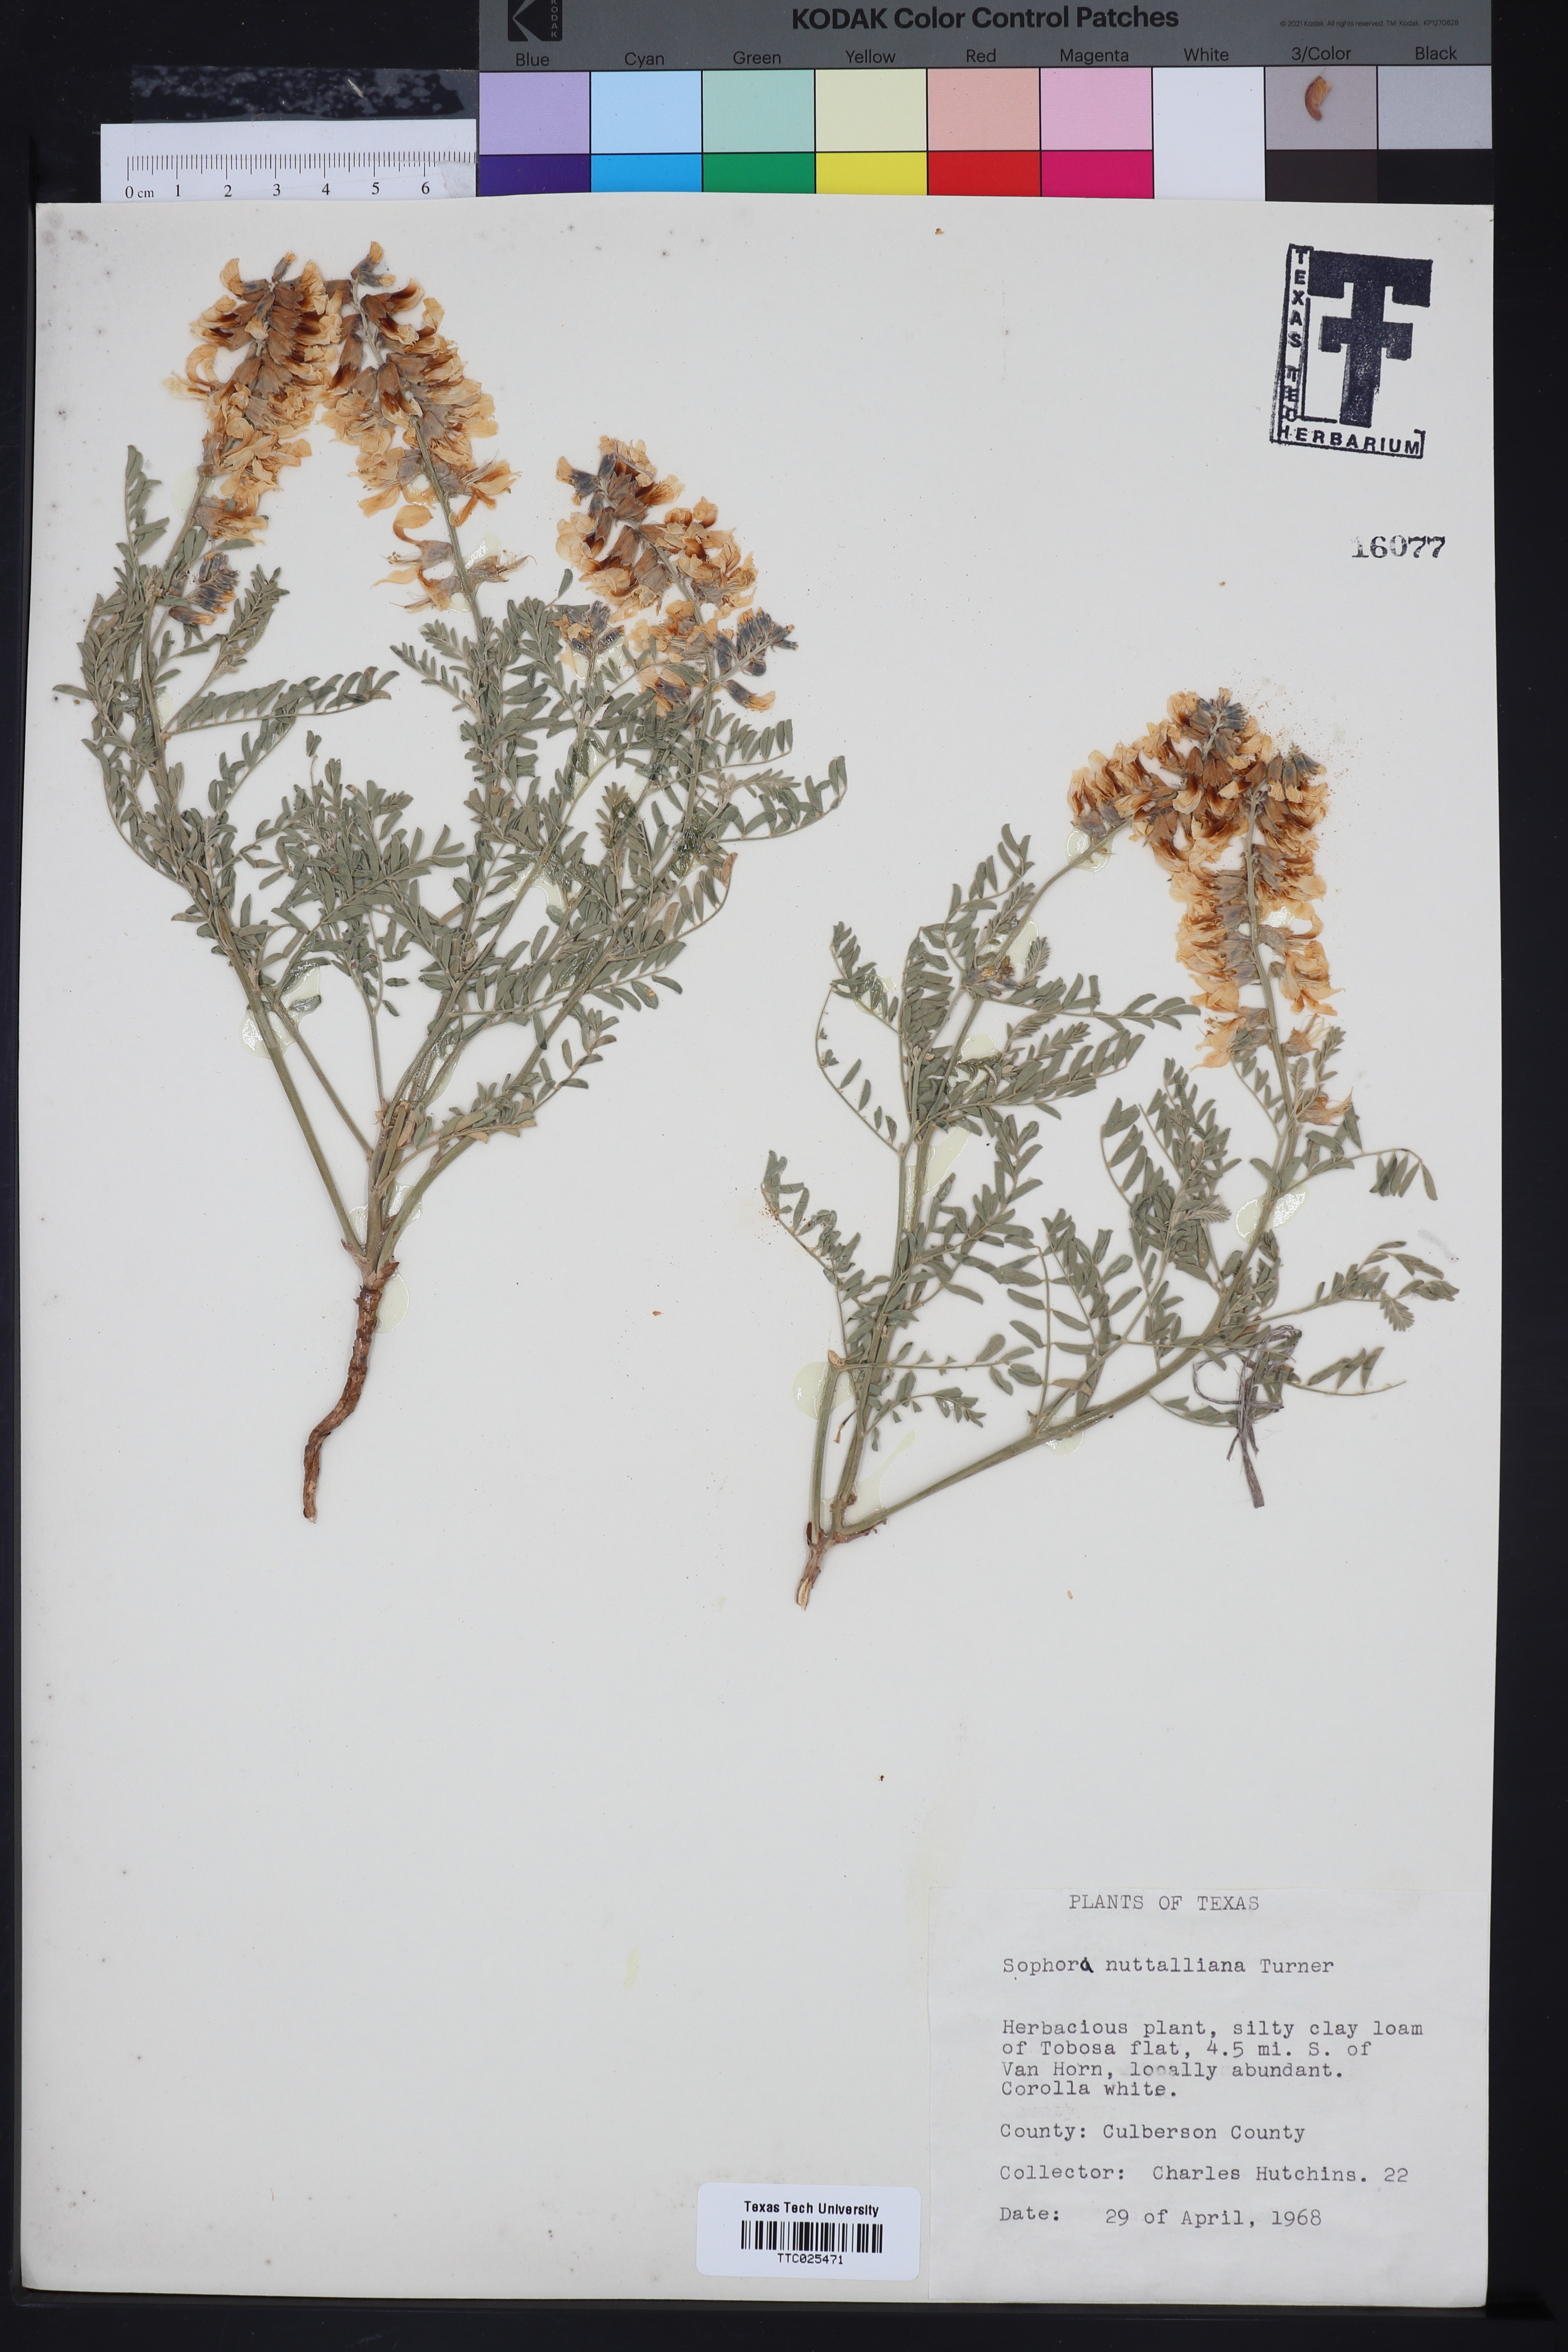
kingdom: Plantae
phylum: Tracheophyta
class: Magnoliopsida
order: Fabales
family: Fabaceae
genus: Sophora
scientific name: Sophora nuttalliana
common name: Silky sophora
